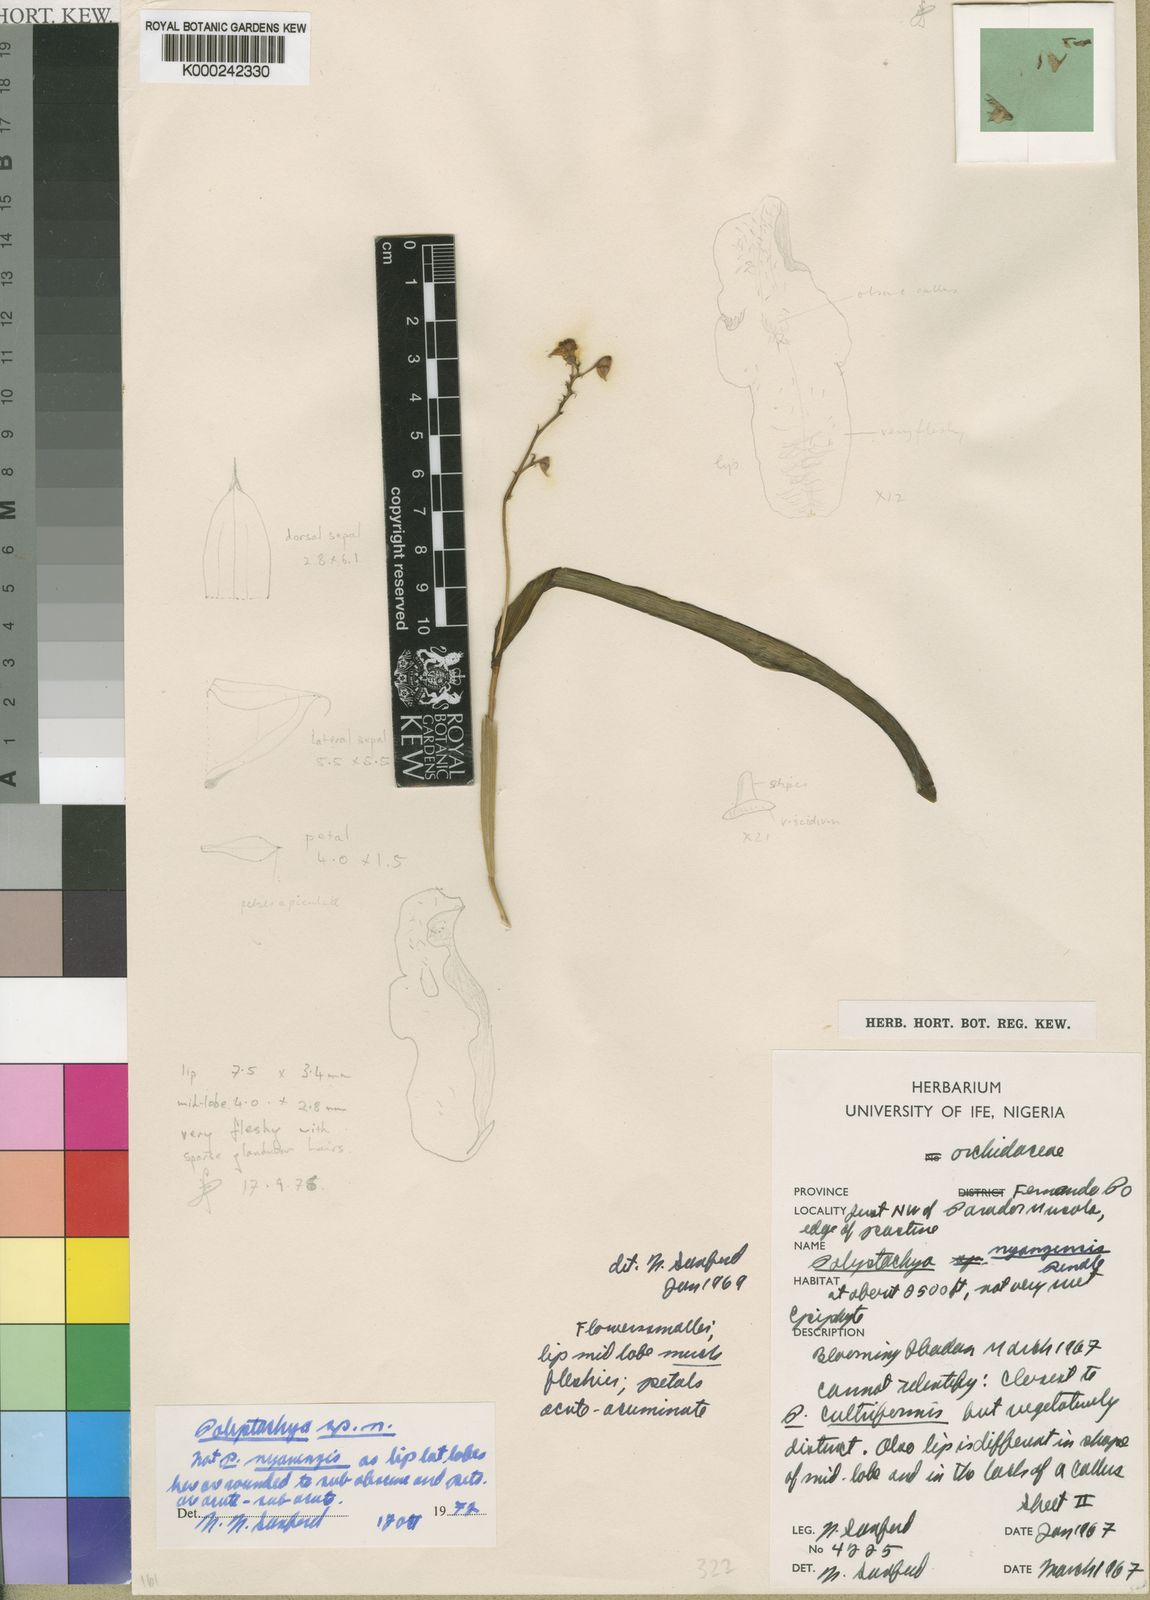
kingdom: Plantae
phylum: Tracheophyta
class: Liliopsida
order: Asparagales
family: Orchidaceae
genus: Polystachya
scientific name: Polystachya carnosa
